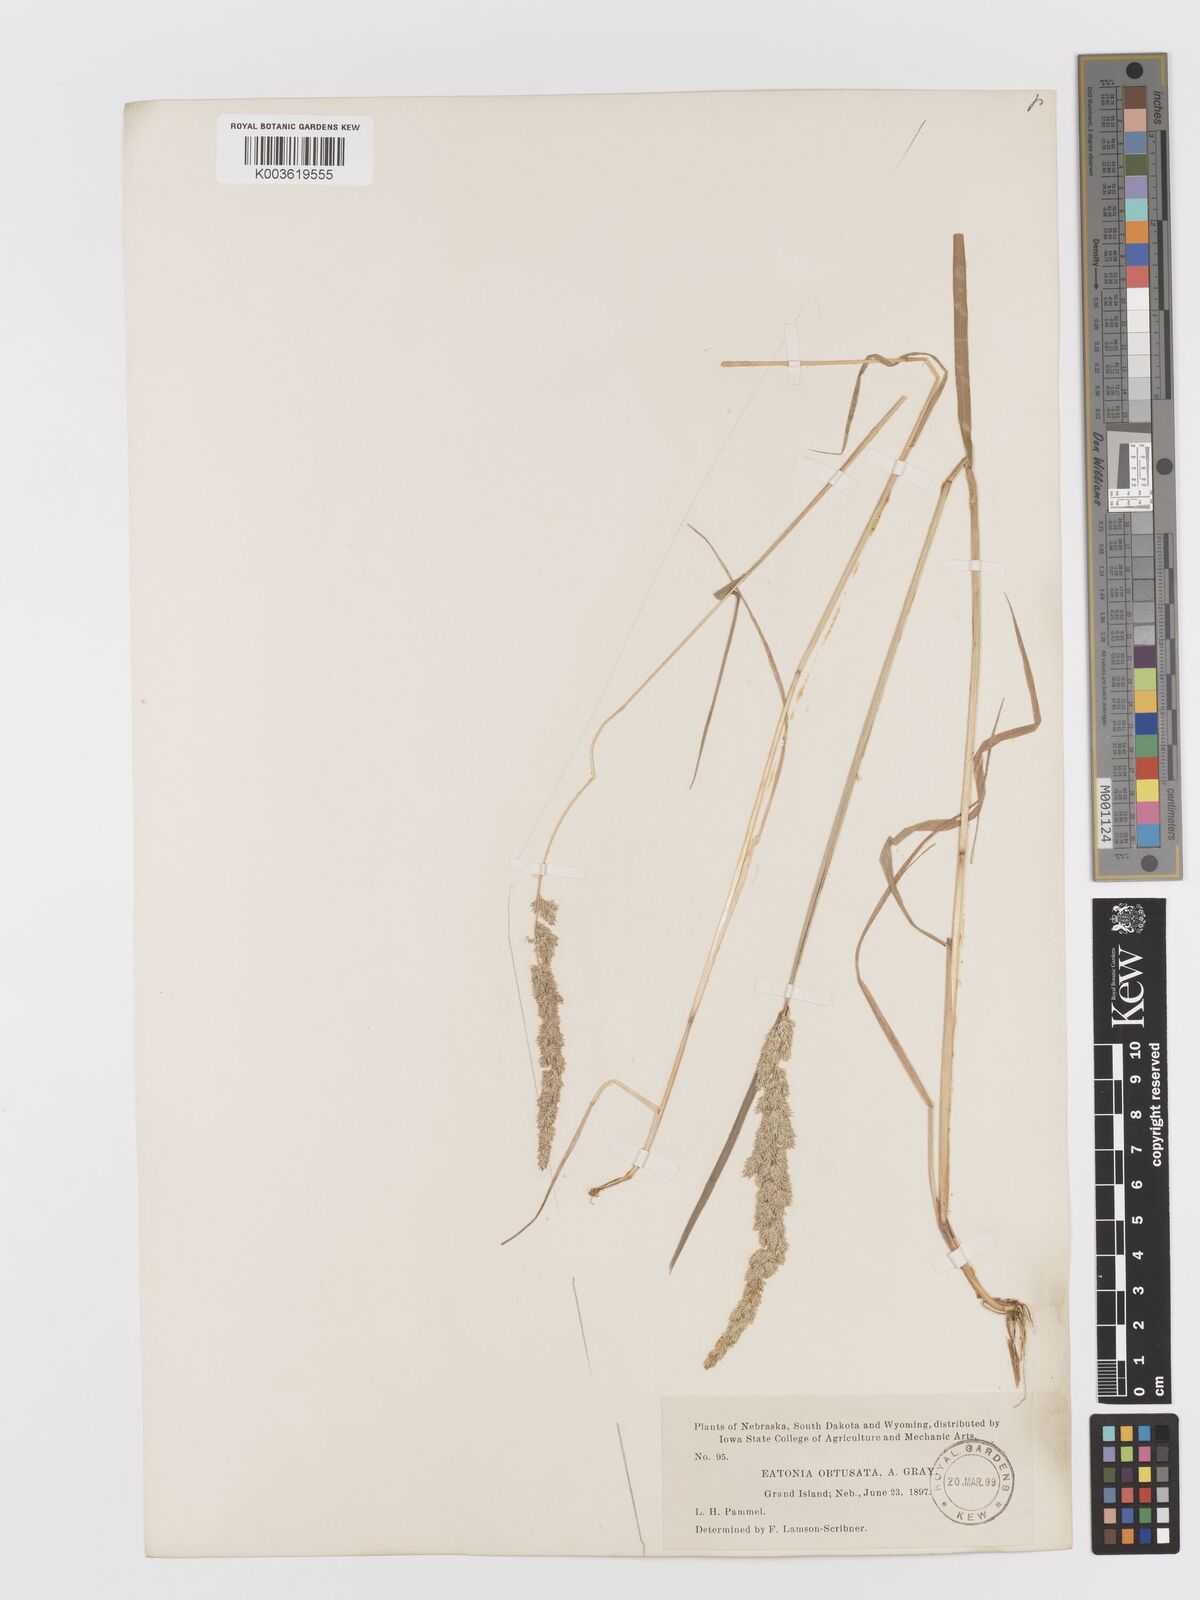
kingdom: Plantae
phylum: Tracheophyta
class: Liliopsida
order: Poales
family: Poaceae
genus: Sphenopholis
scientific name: Sphenopholis obtusata
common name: Prairie grass
